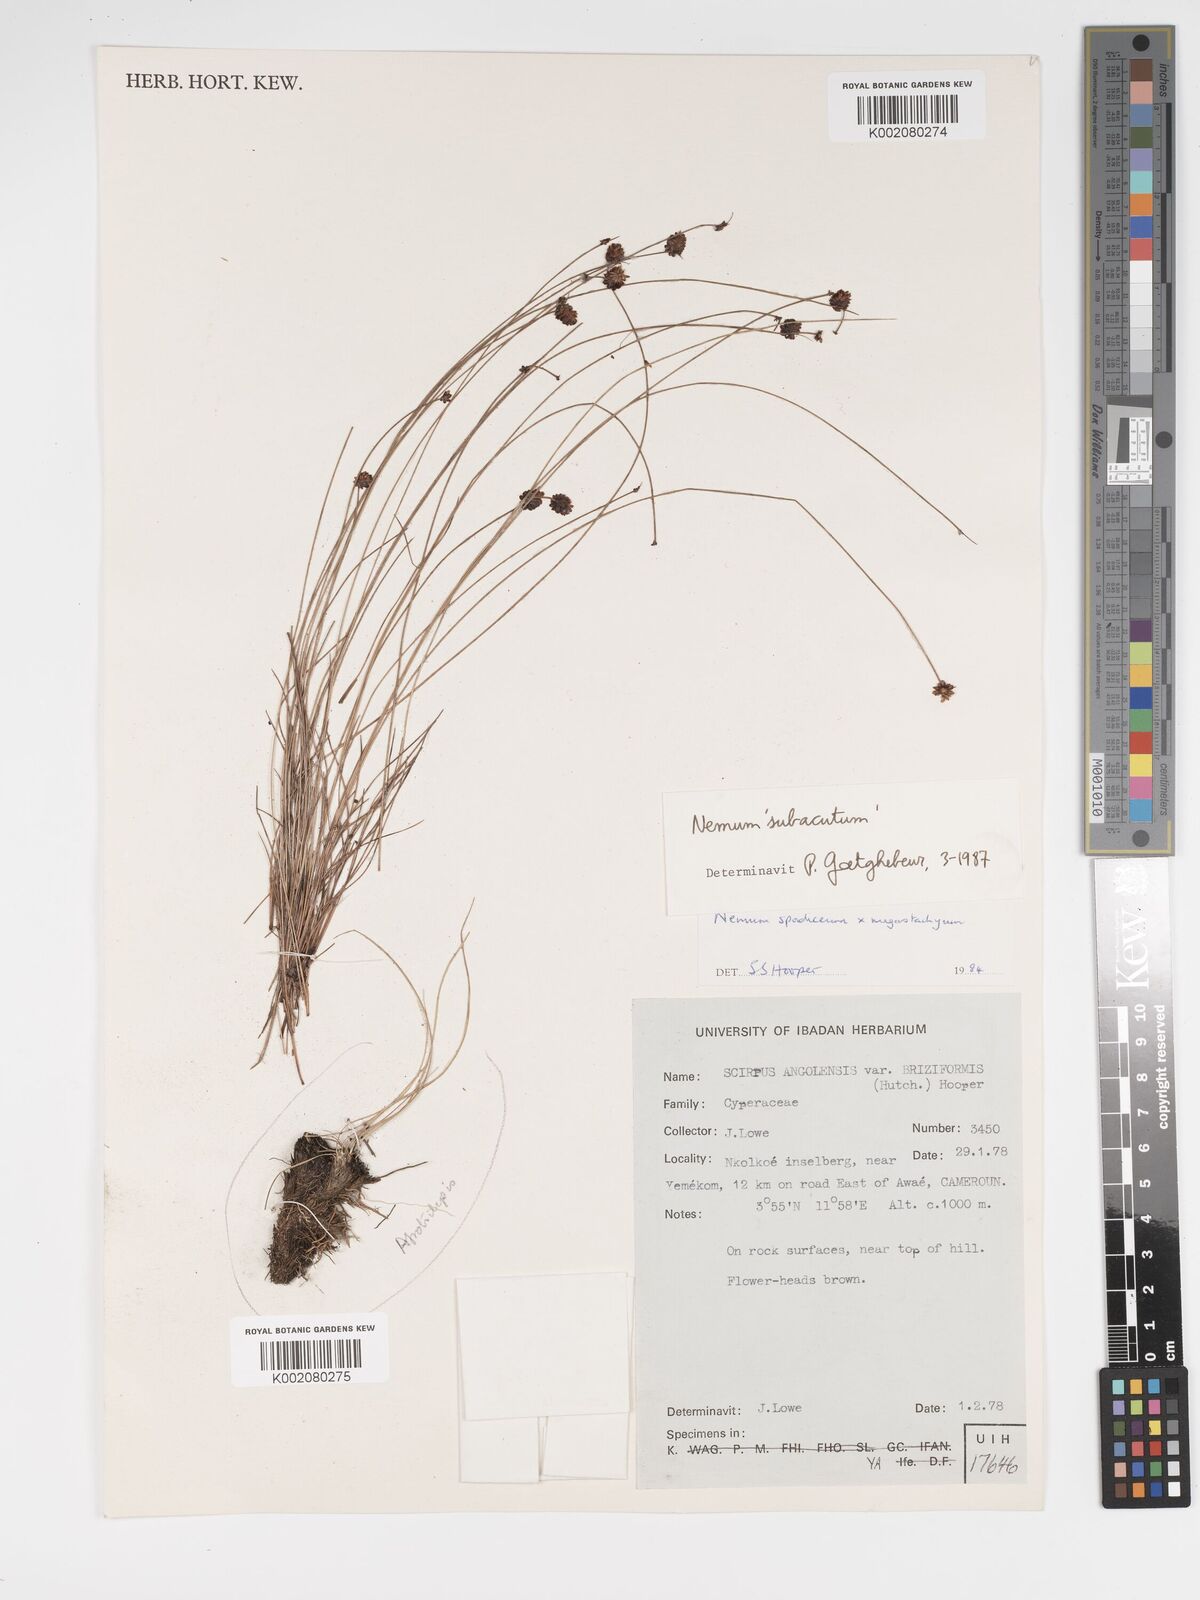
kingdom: Plantae
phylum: Tracheophyta
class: Liliopsida
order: Poales
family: Cyperaceae
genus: Bulbostylis
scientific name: Bulbostylis briziformis
